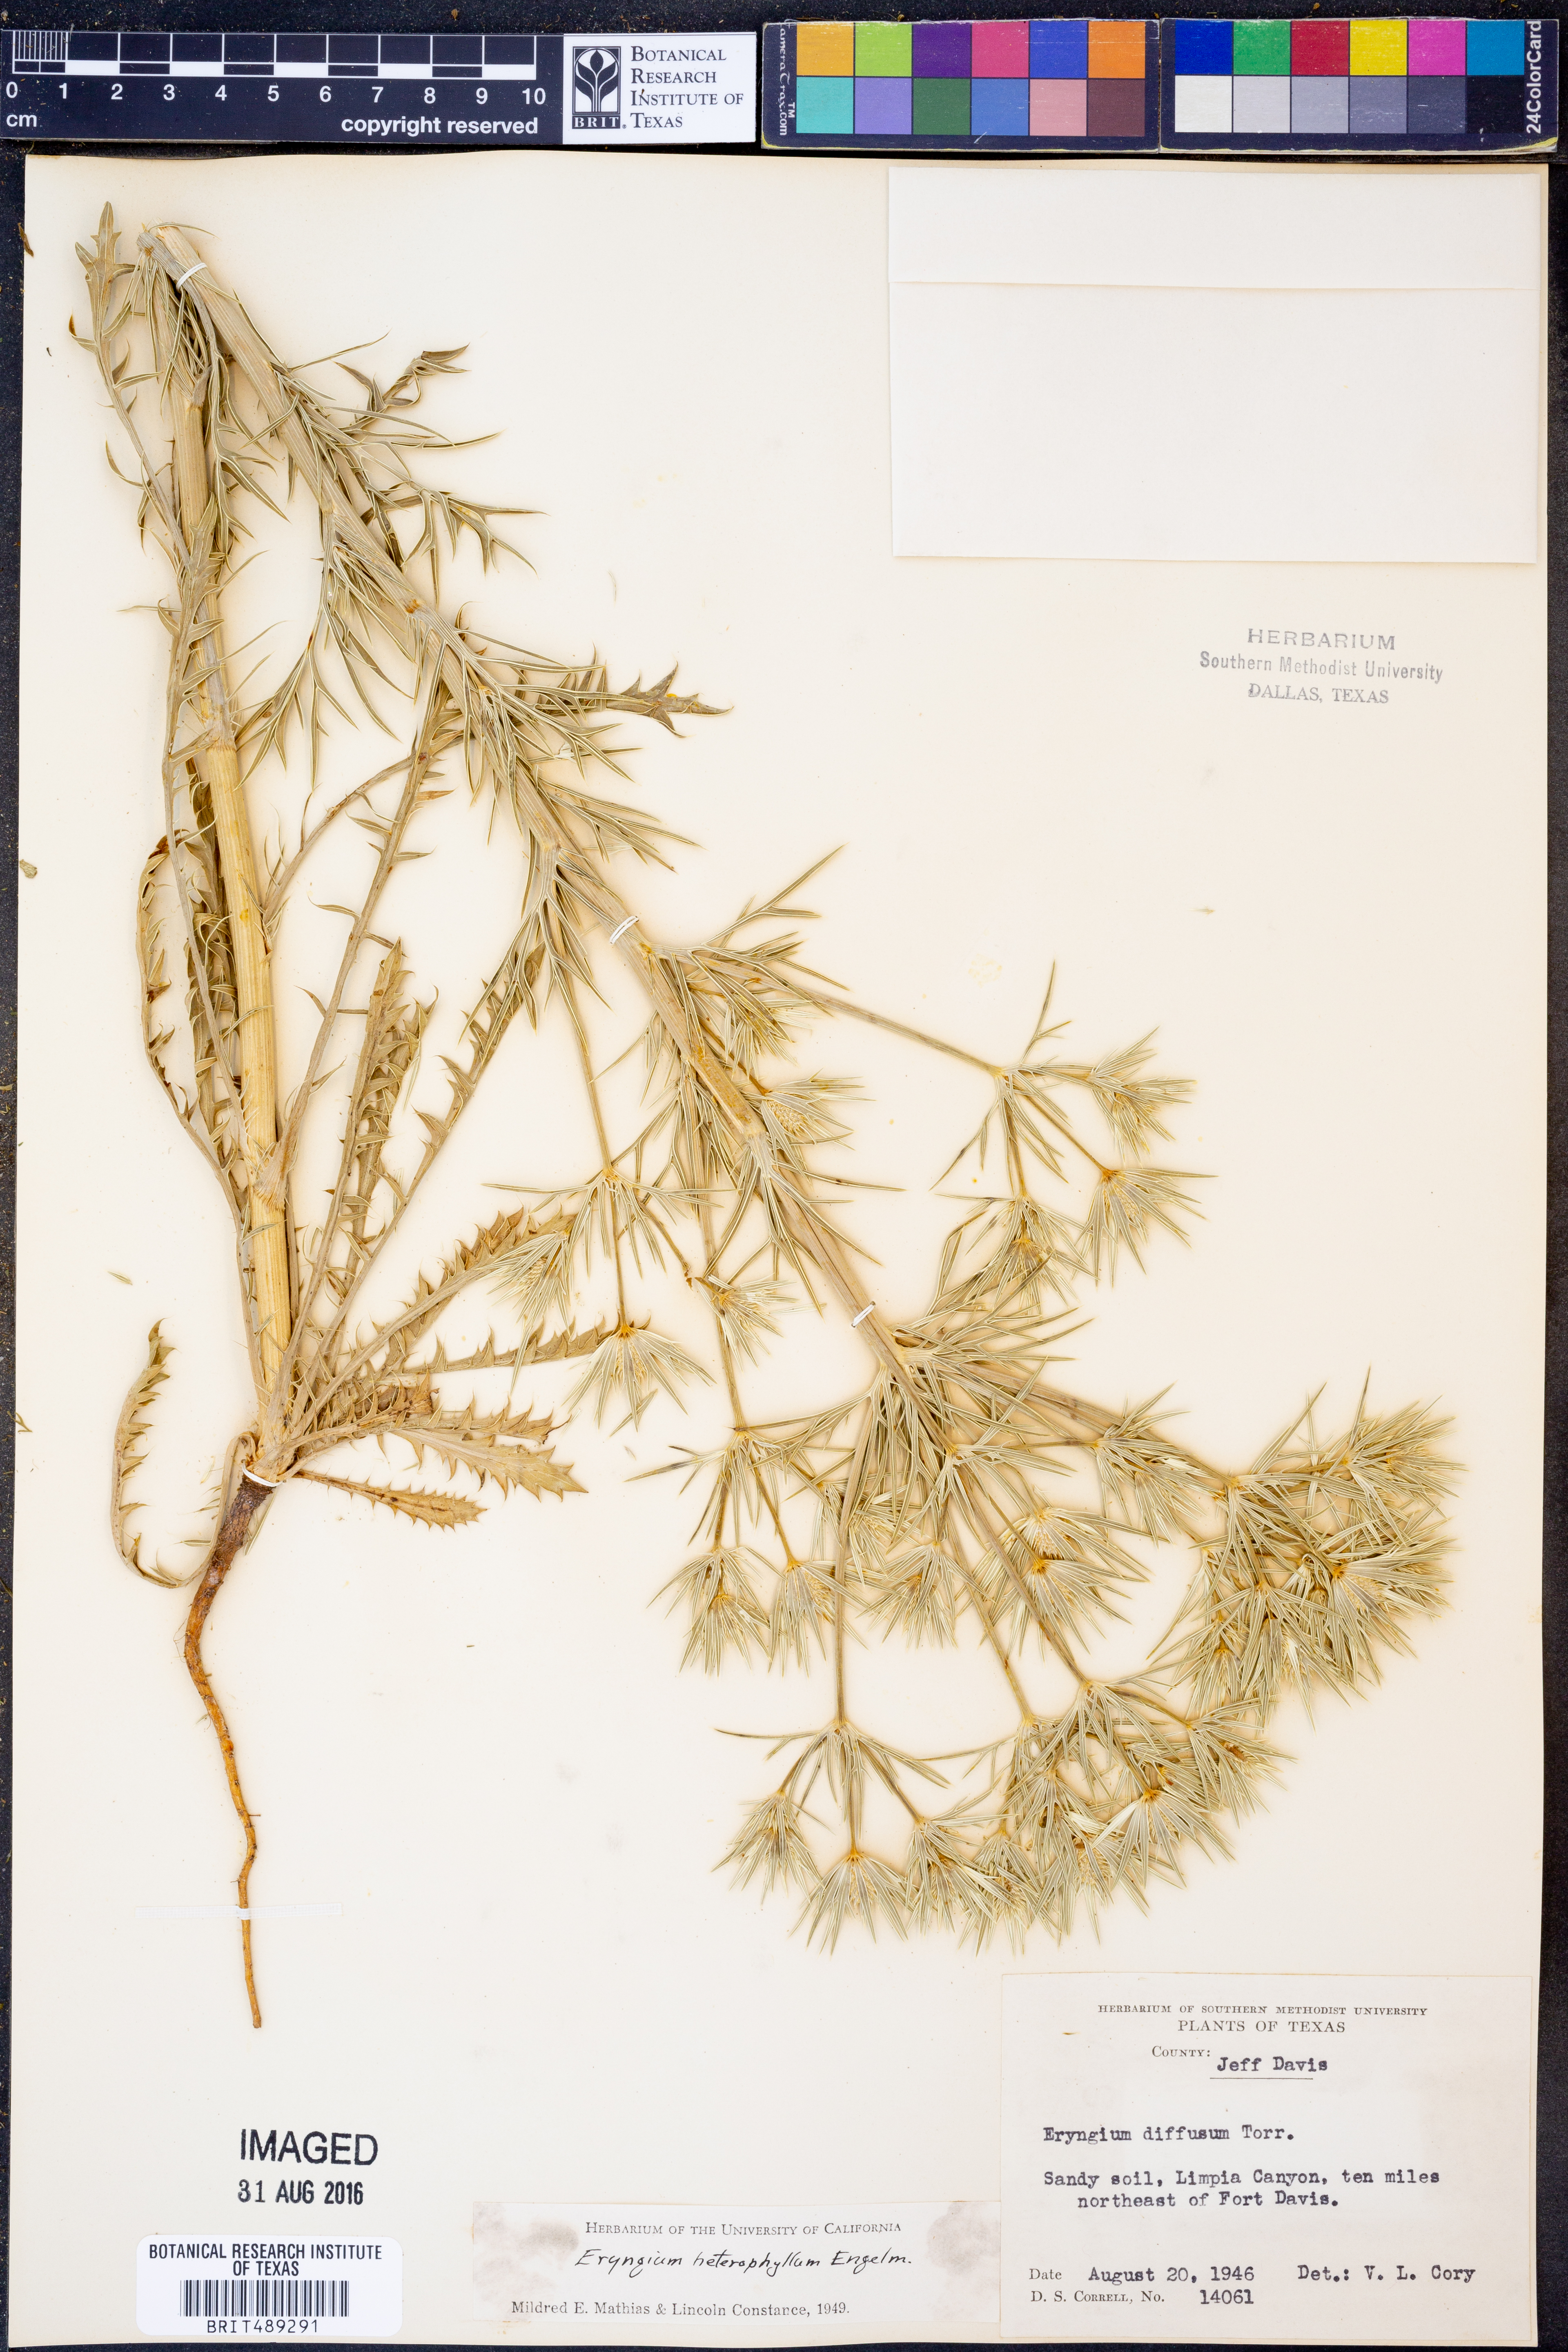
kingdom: Plantae
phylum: Tracheophyta
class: Magnoliopsida
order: Apiales
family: Apiaceae
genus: Eryngium
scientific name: Eryngium heterophyllum
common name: Mexican thistle
